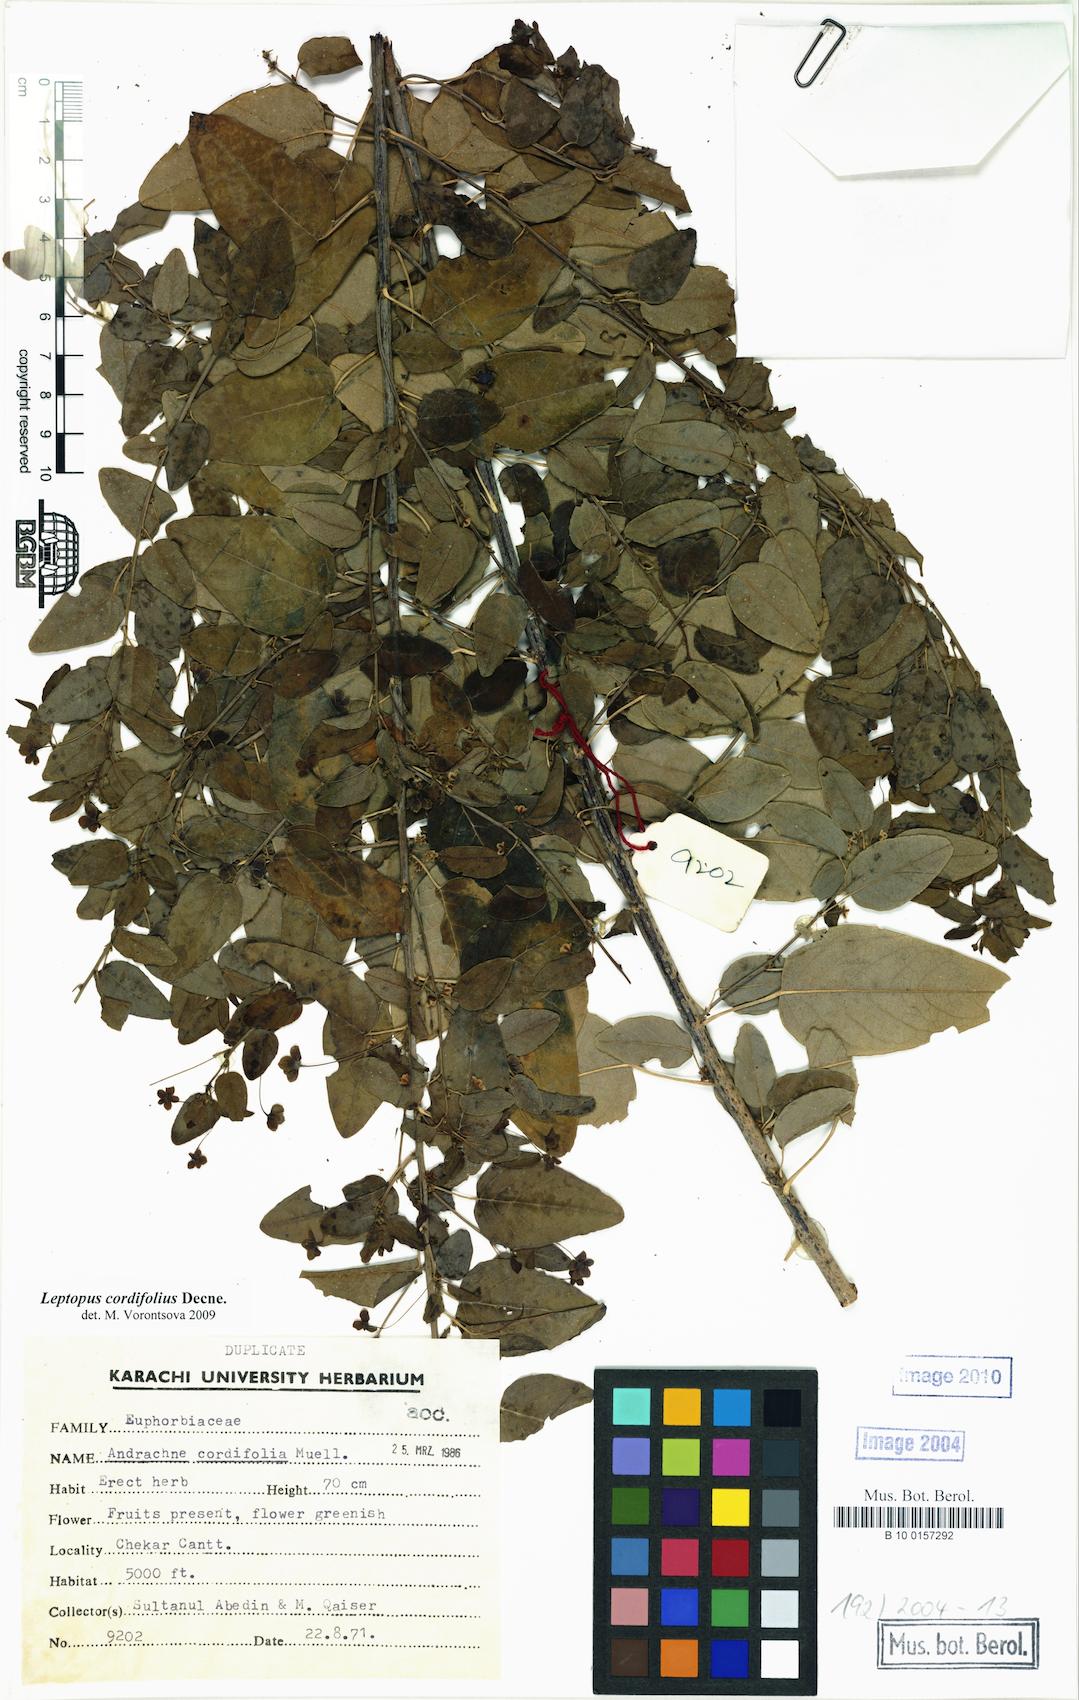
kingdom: Plantae
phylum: Tracheophyta
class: Magnoliopsida
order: Malpighiales
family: Phyllanthaceae
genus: Leptopus
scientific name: Leptopus cordifolius
